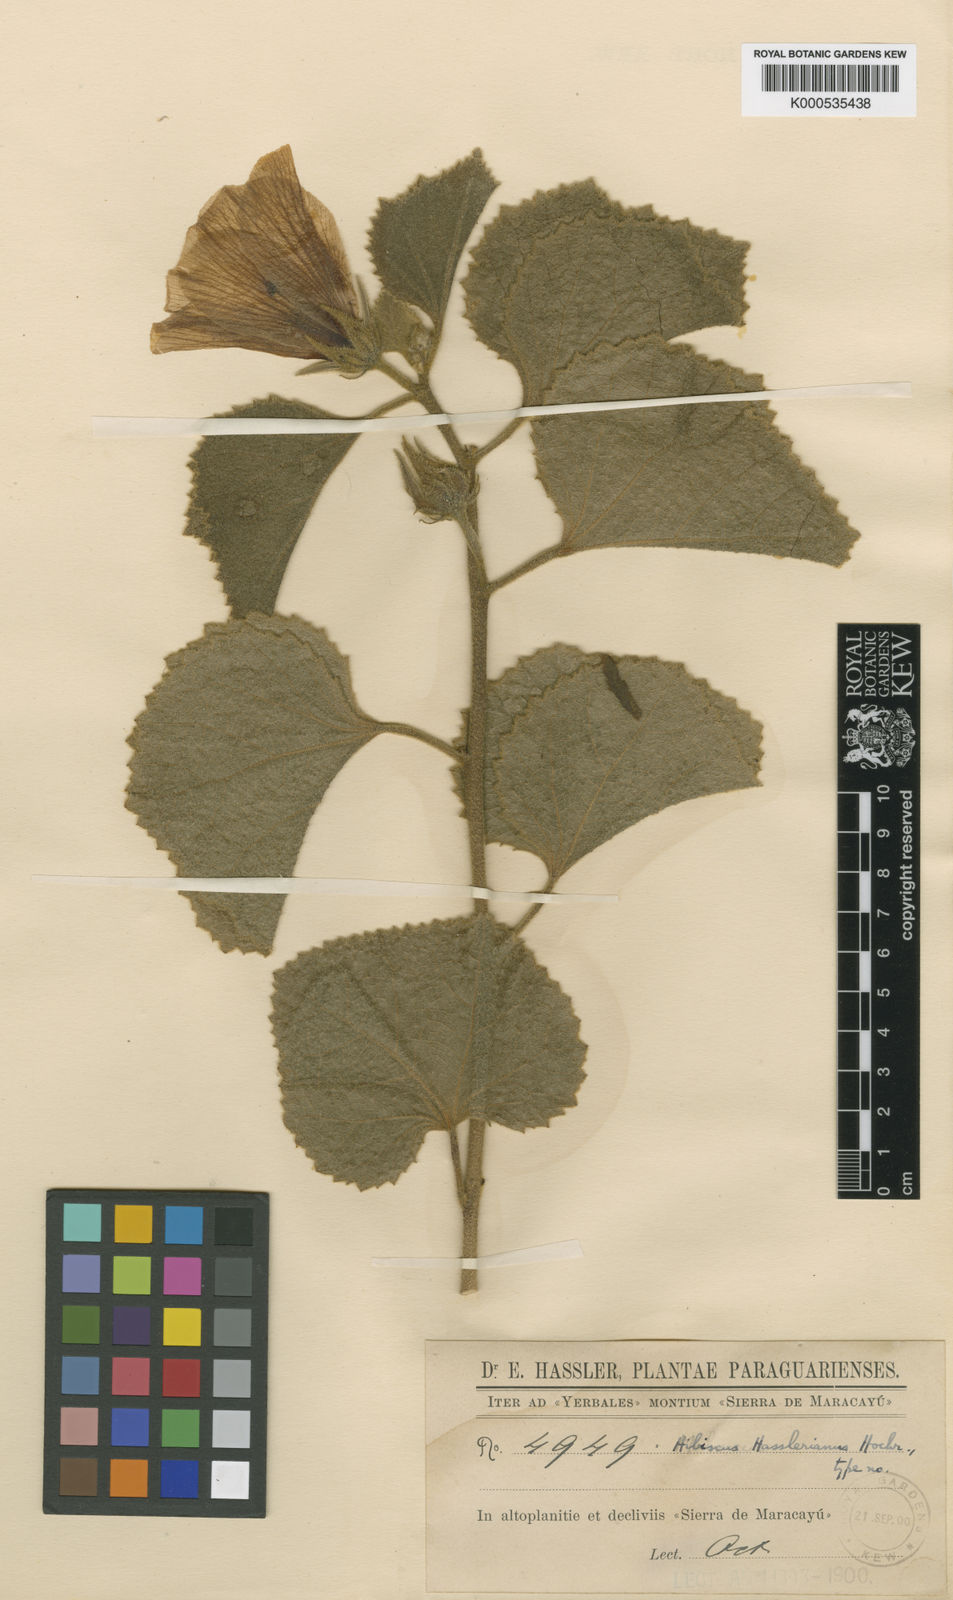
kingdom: Plantae
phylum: Tracheophyta
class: Magnoliopsida
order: Malvales
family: Malvaceae
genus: Hibiscus
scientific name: Hibiscus hasslerianus
